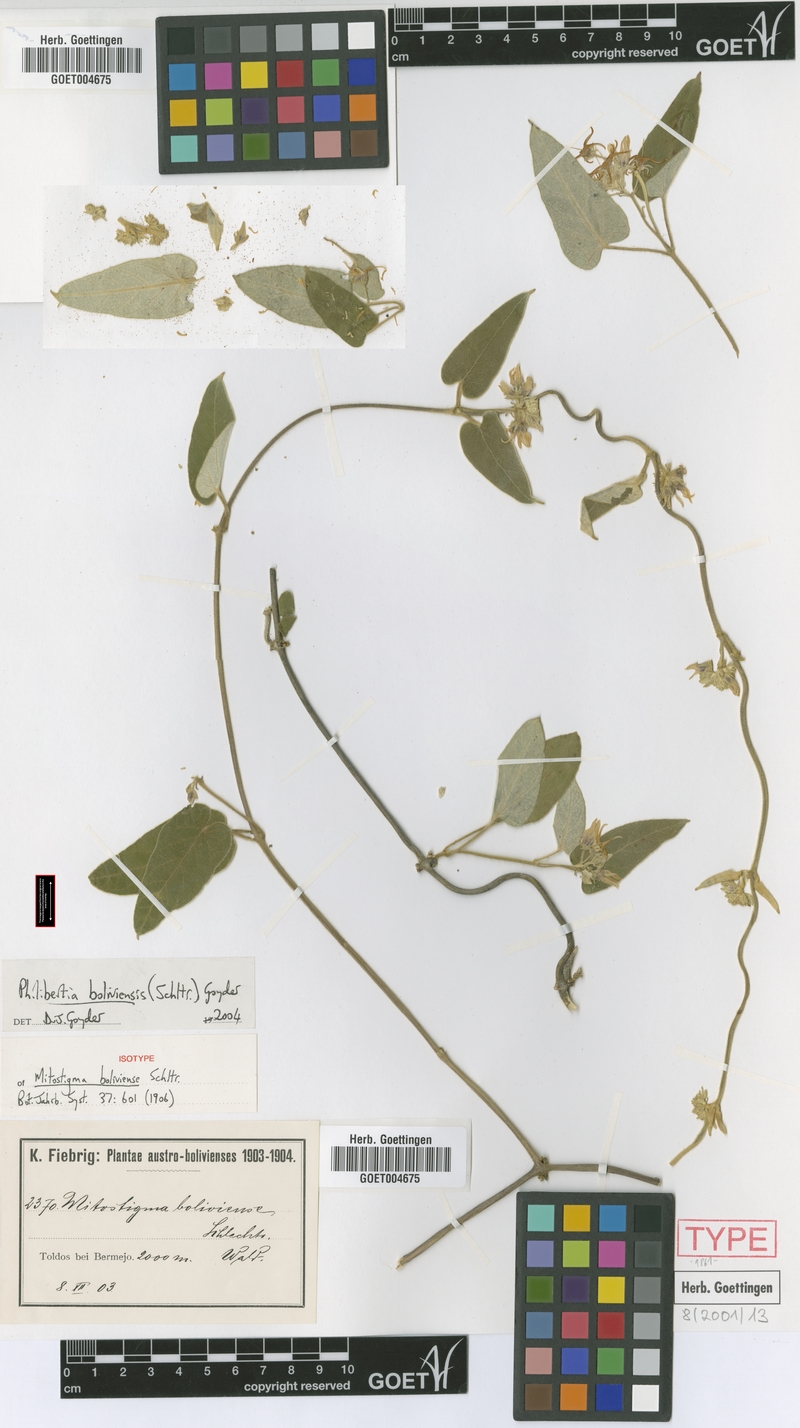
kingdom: Plantae
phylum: Tracheophyta
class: Magnoliopsida
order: Gentianales
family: Apocynaceae
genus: Philibertia
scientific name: Philibertia boliviensis
